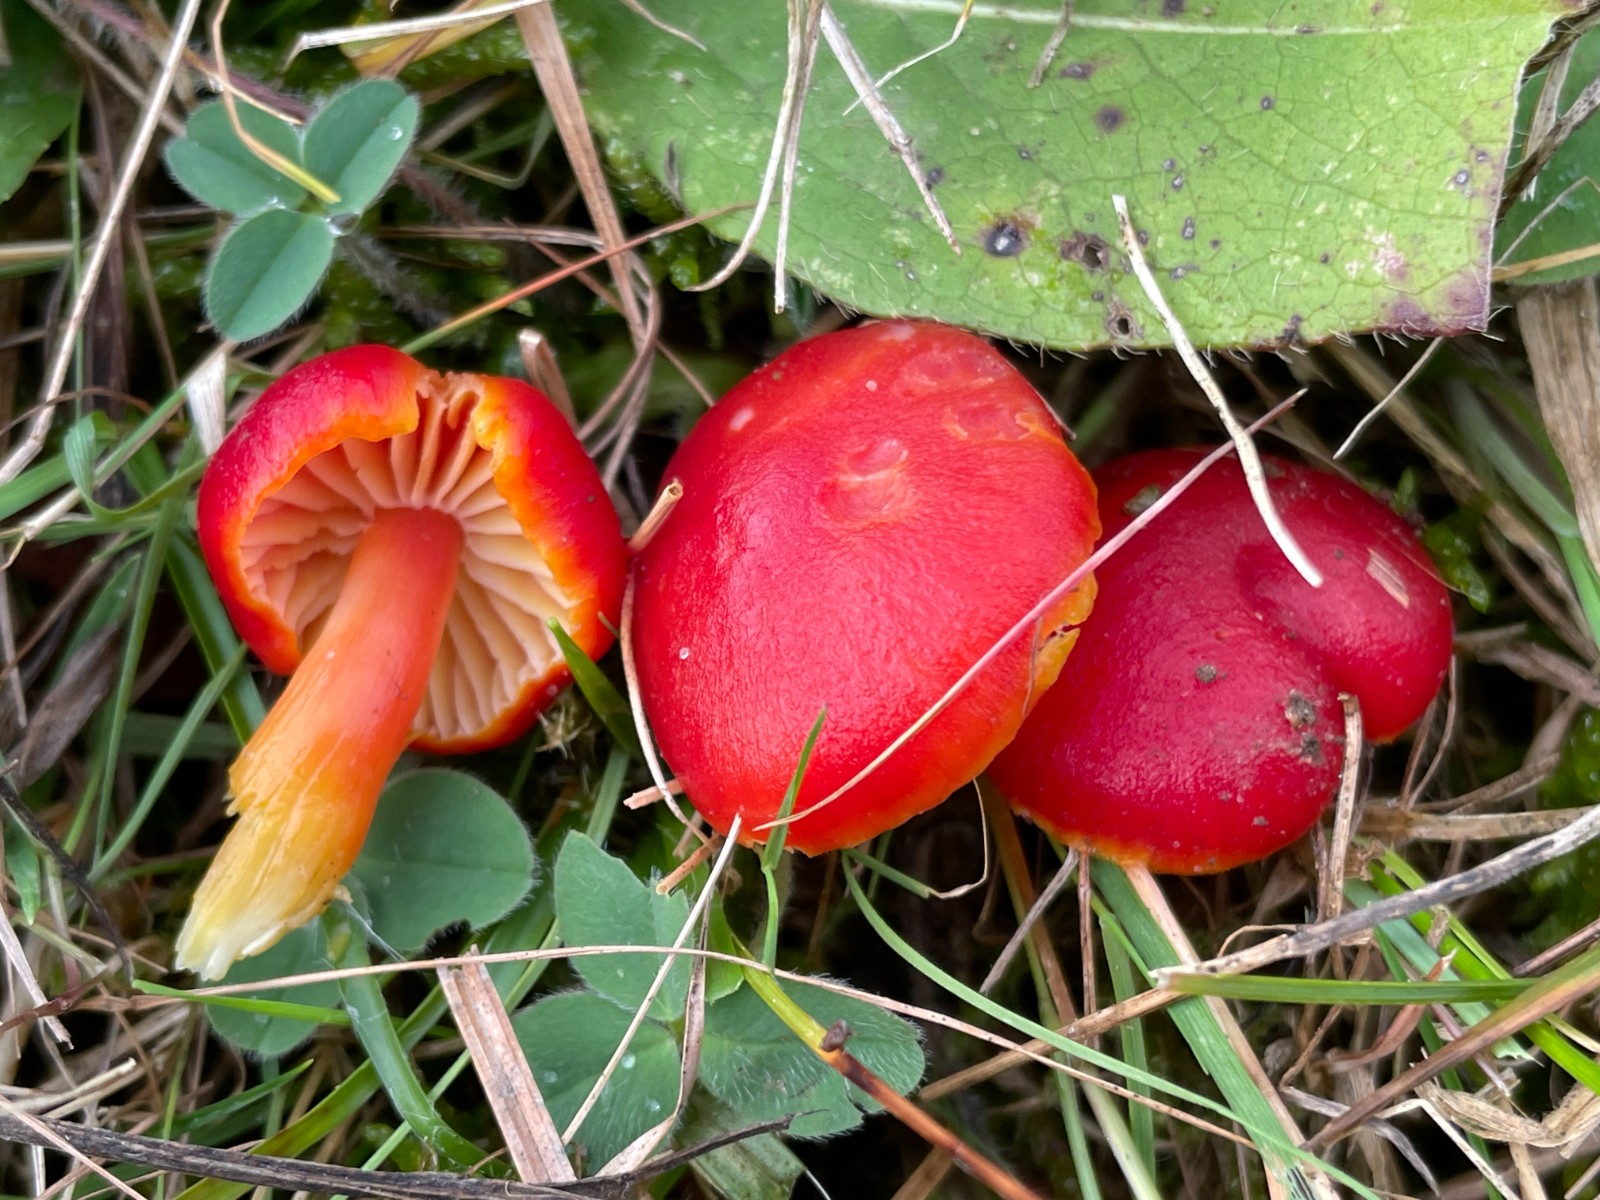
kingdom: Fungi
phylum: Basidiomycota
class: Agaricomycetes
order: Agaricales
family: Hygrophoraceae
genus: Hygrocybe
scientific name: Hygrocybe miniata
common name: mønje-vokshat
